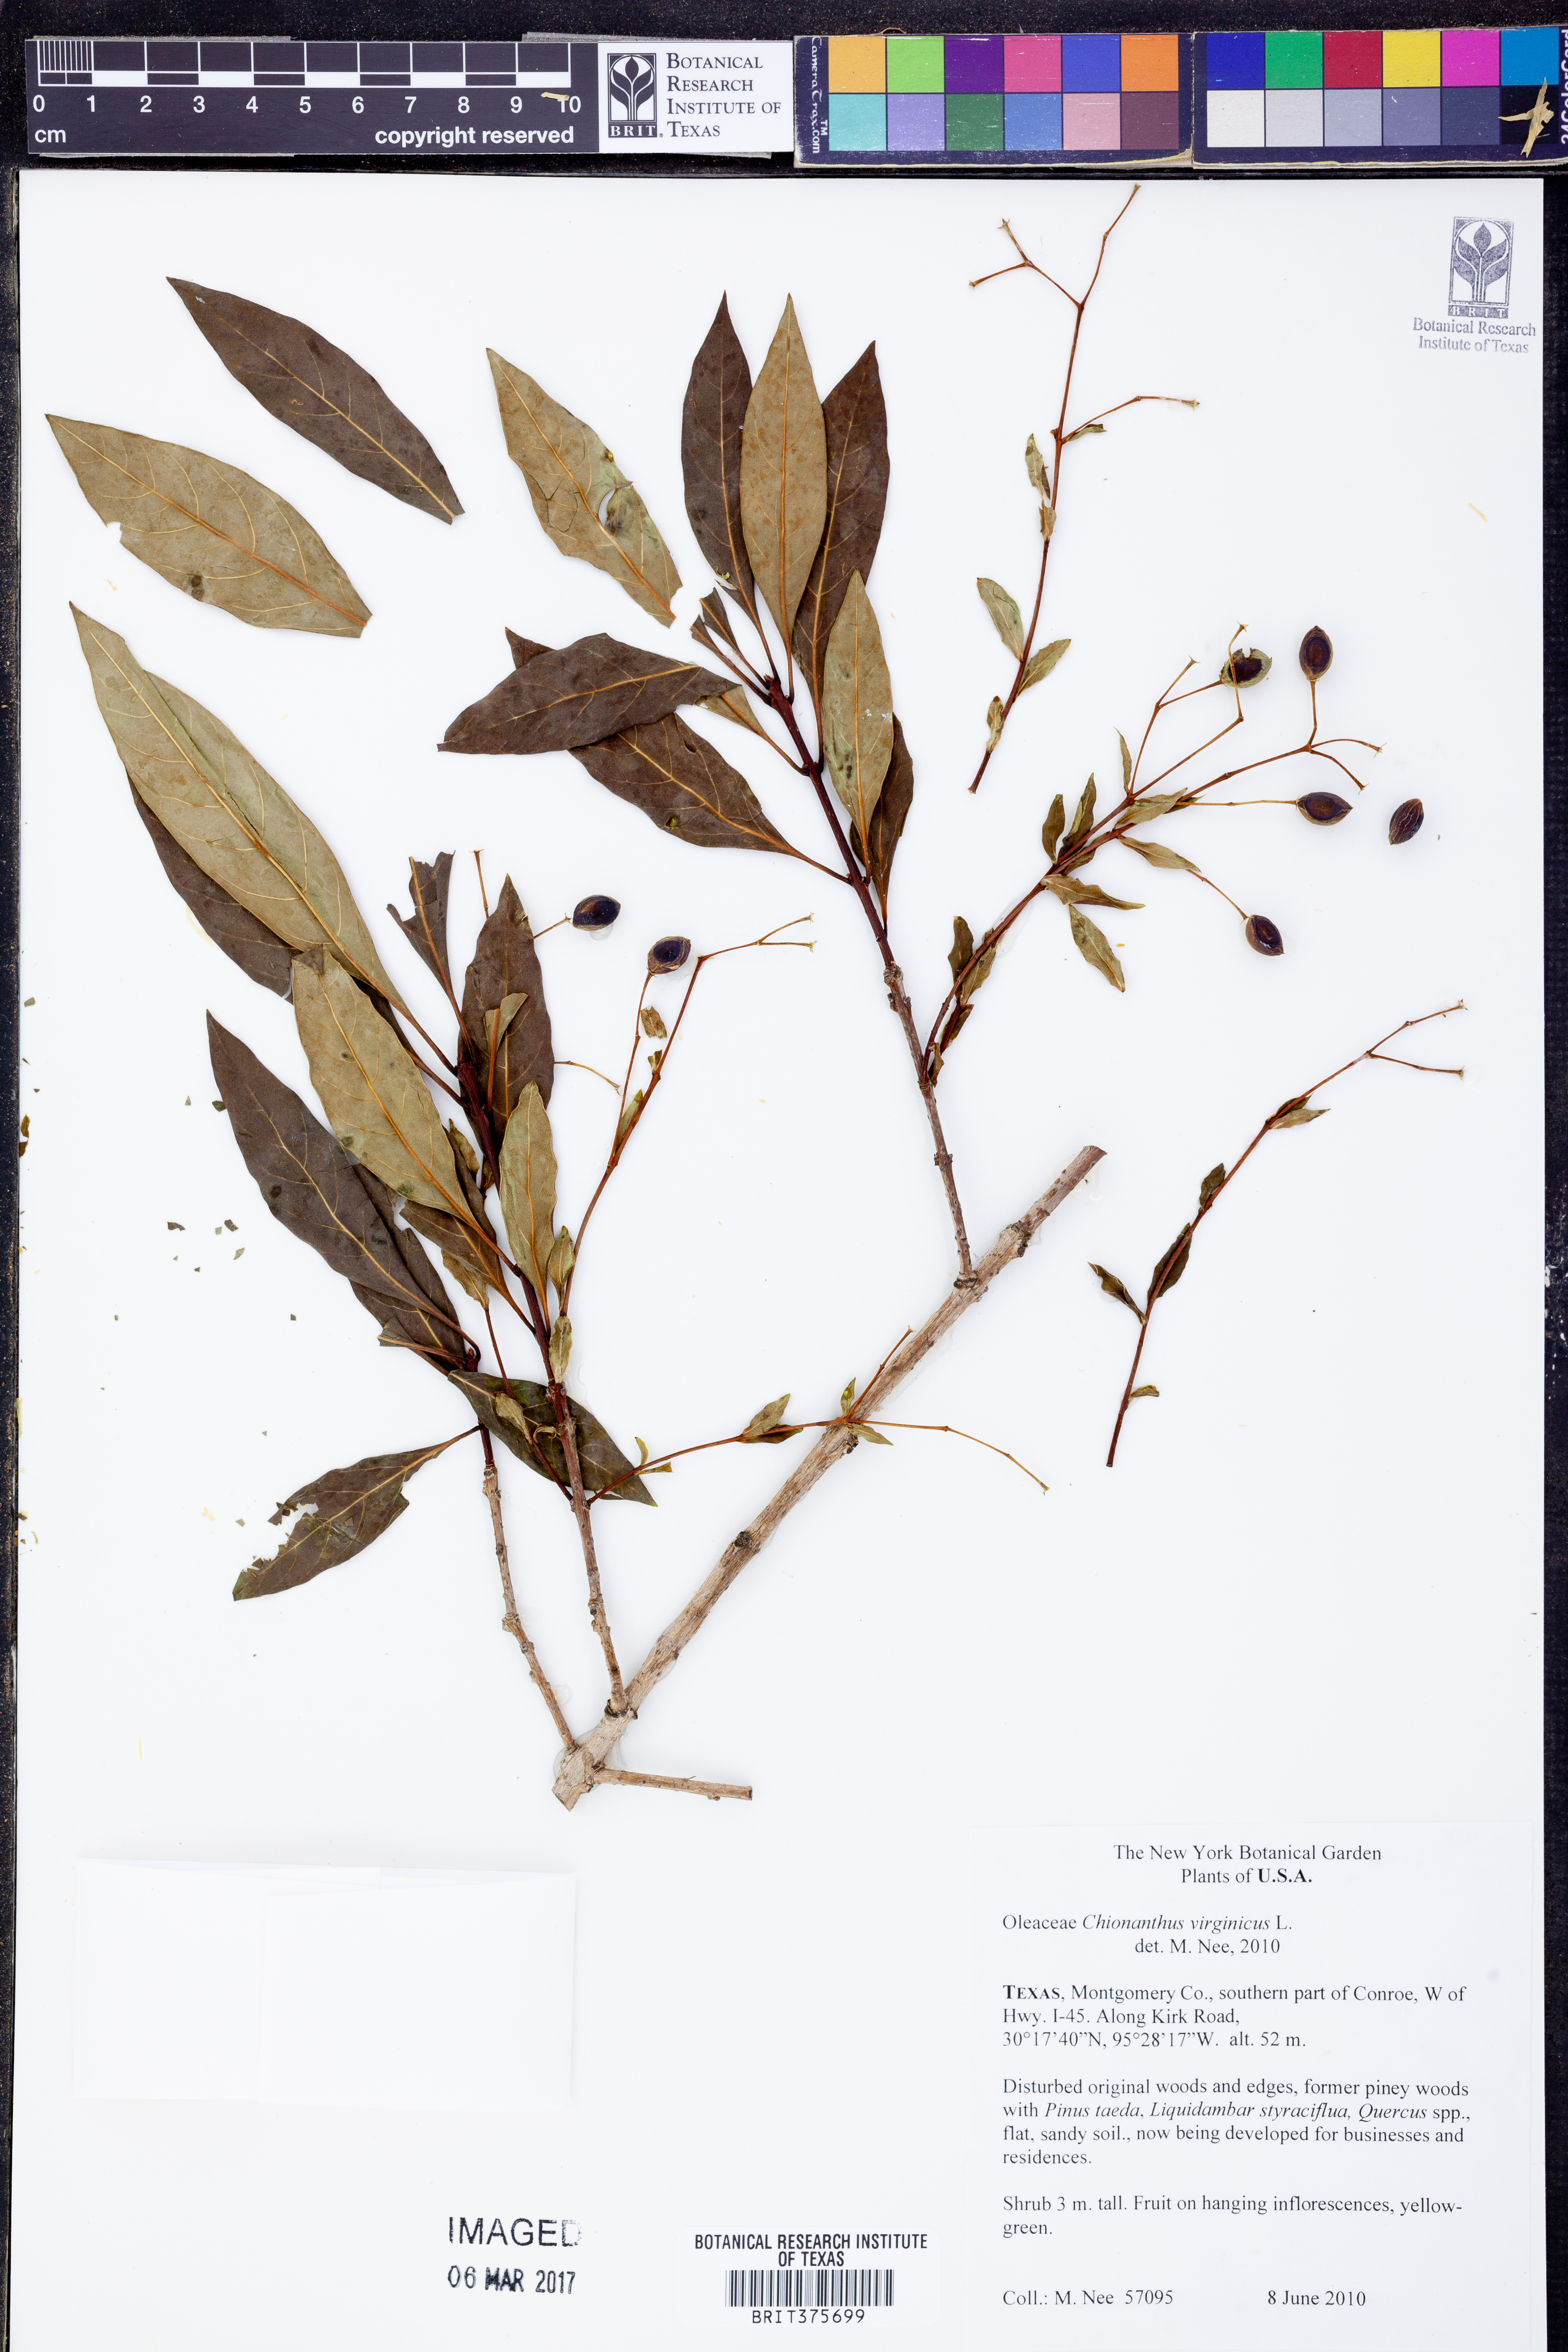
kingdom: Plantae
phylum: Tracheophyta
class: Magnoliopsida
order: Lamiales
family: Oleaceae
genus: Chionanthus
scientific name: Chionanthus virginicus
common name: American fringetree
